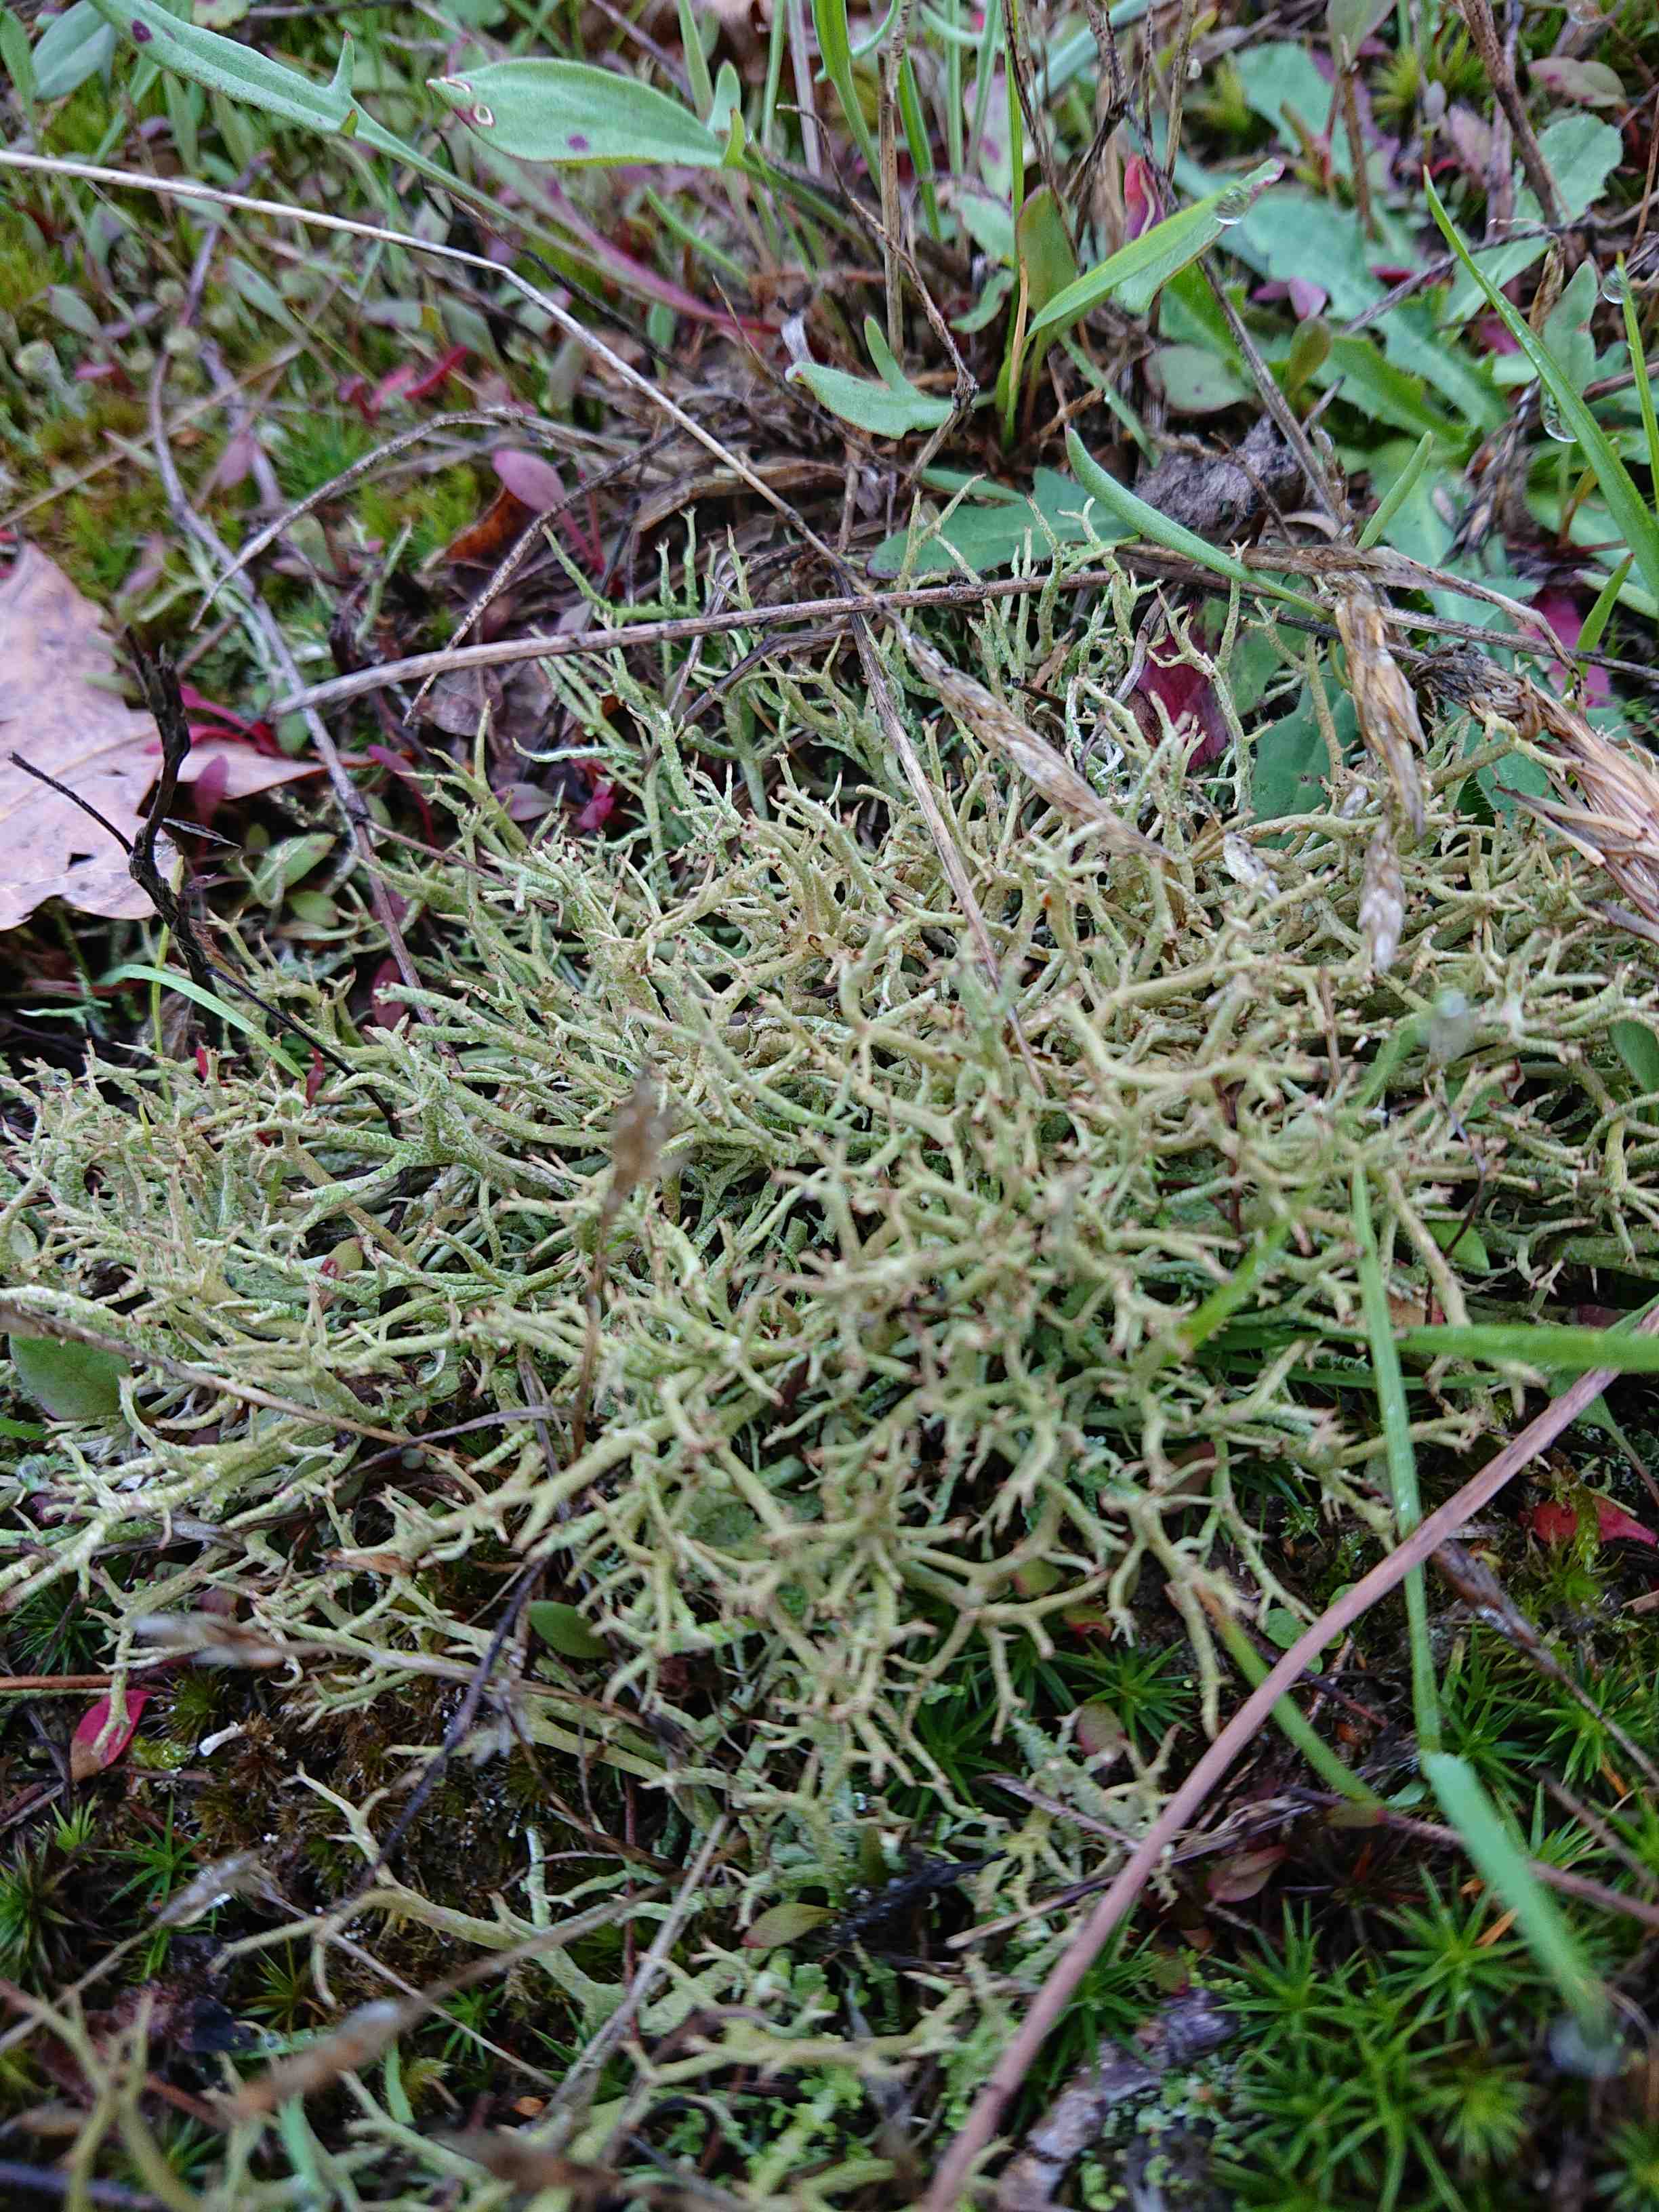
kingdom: Fungi
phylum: Ascomycota
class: Lecanoromycetes
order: Lecanorales
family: Cladoniaceae
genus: Cladonia
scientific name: Cladonia furcata
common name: kløftet bægerlav
